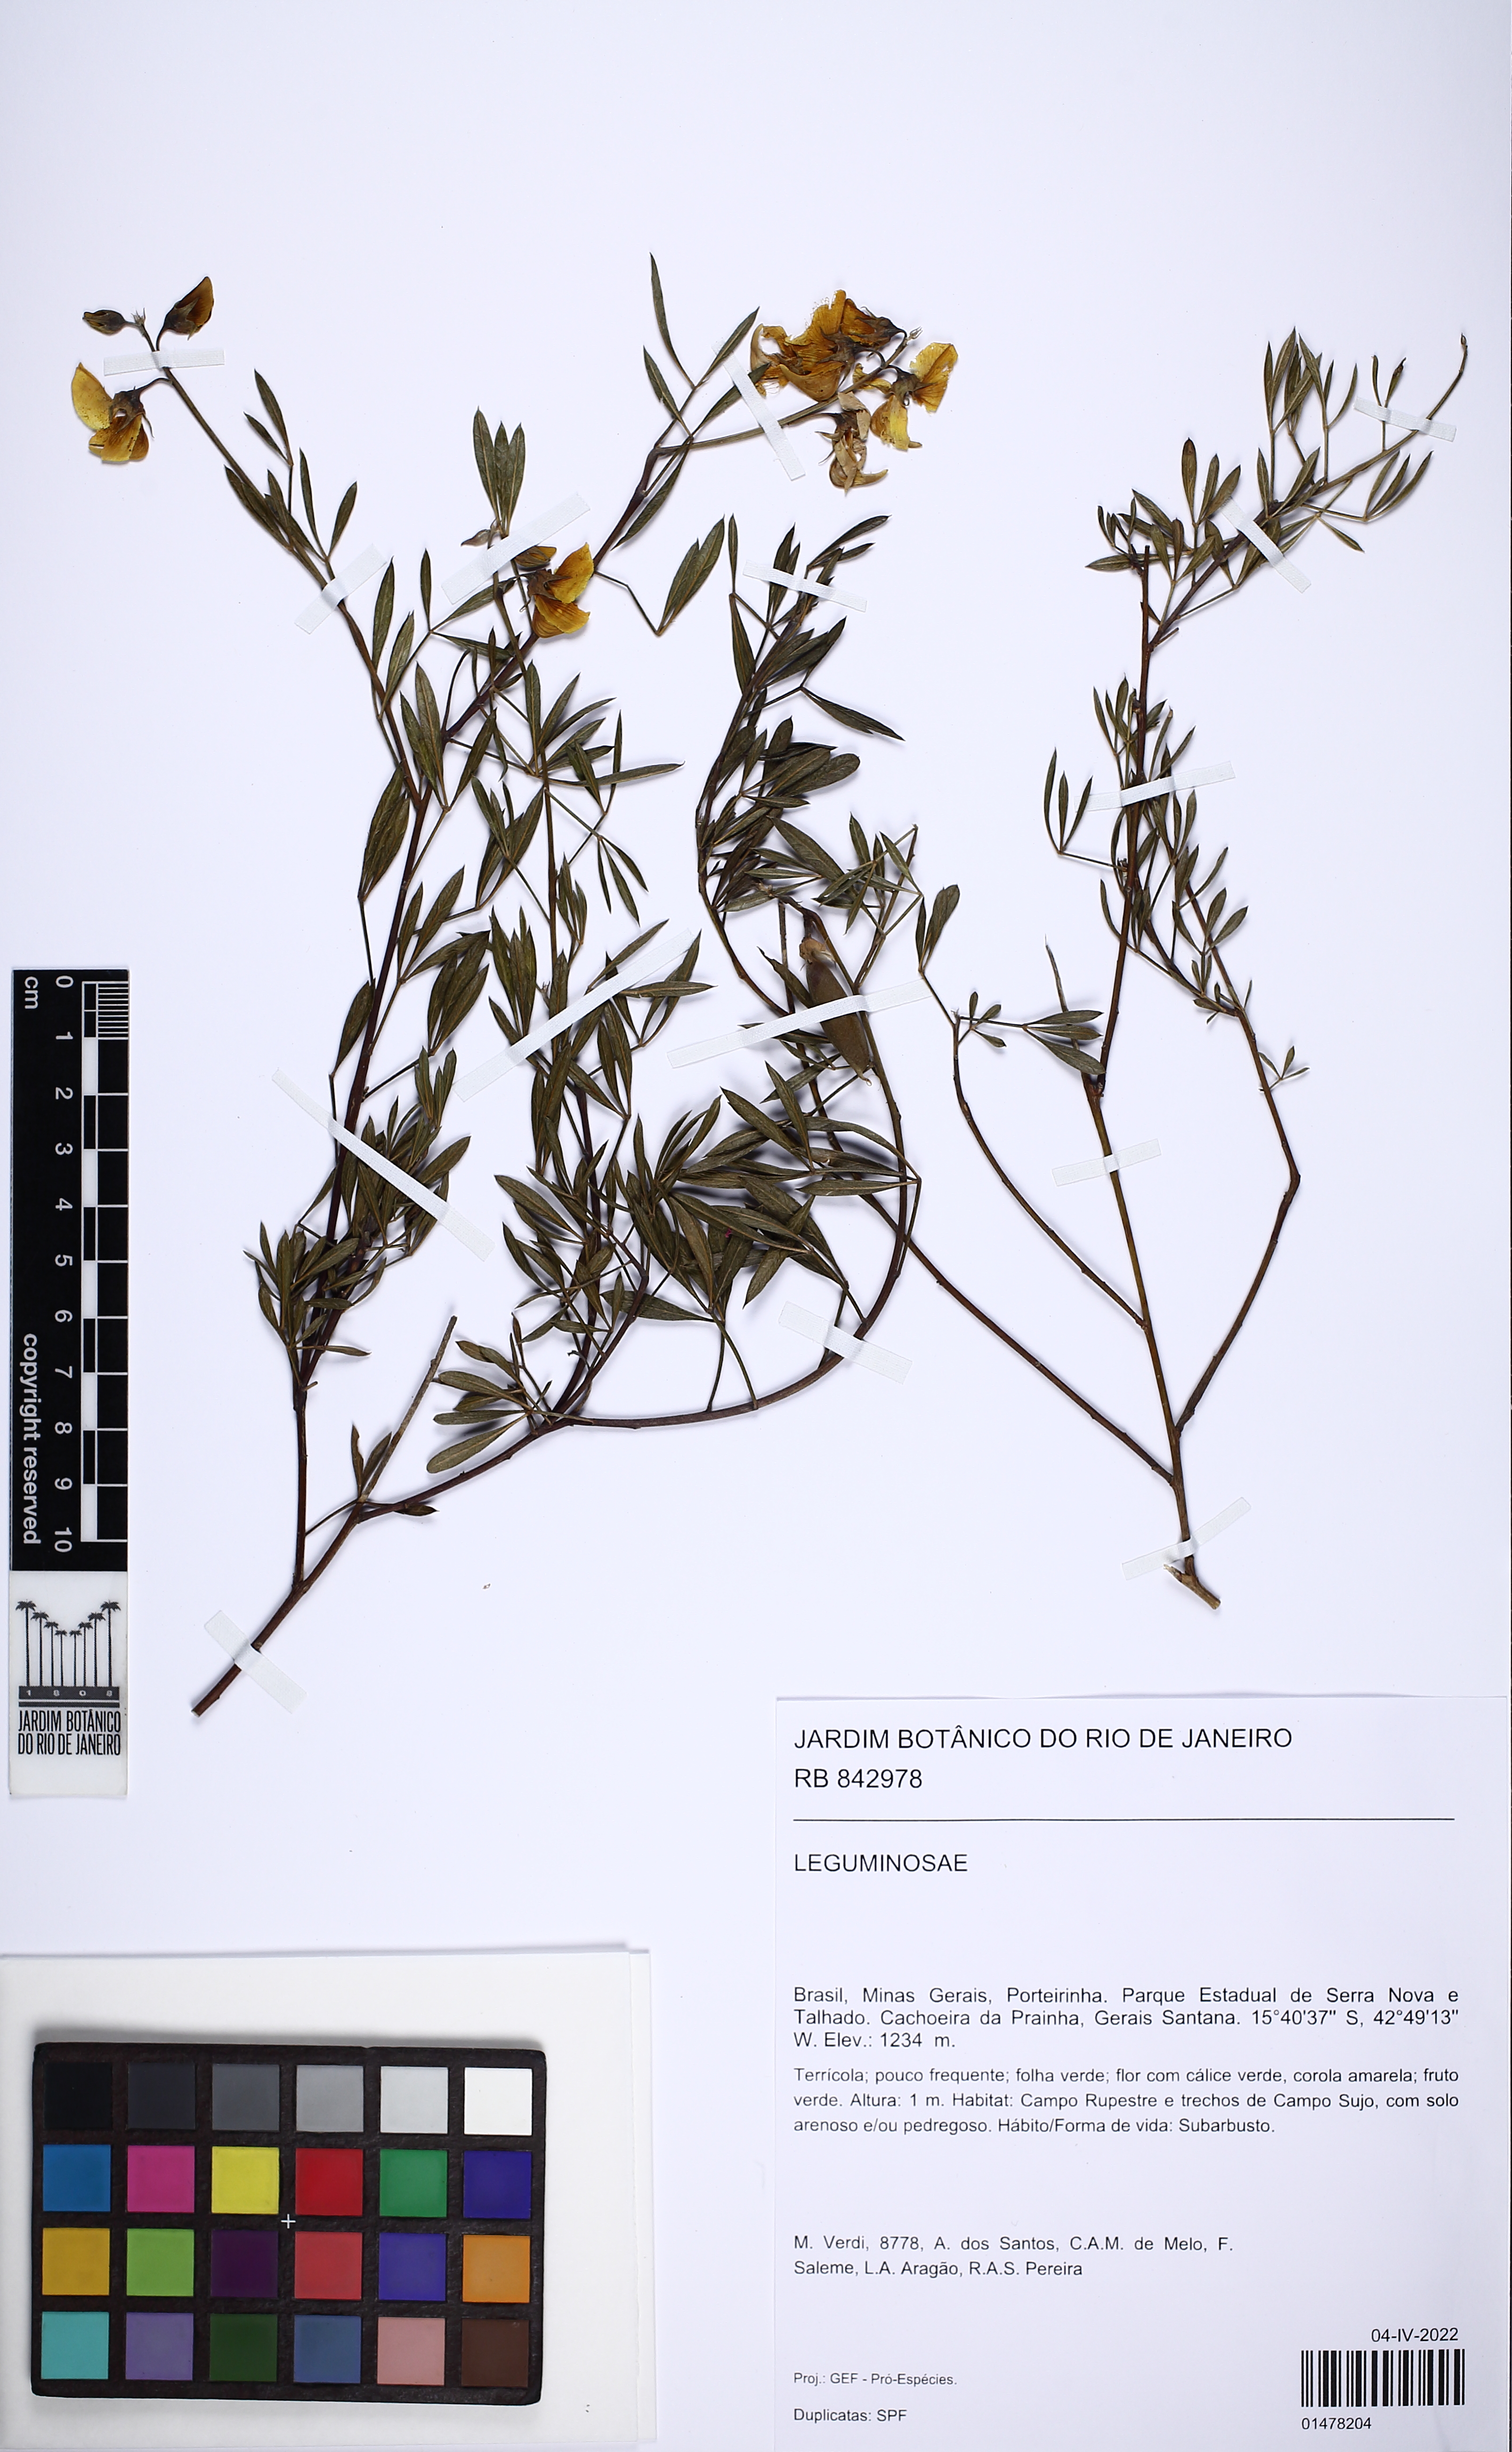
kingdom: Plantae
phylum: Tracheophyta
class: Magnoliopsida
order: Fabales
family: Fabaceae
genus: Crotalaria
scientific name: Crotalaria
